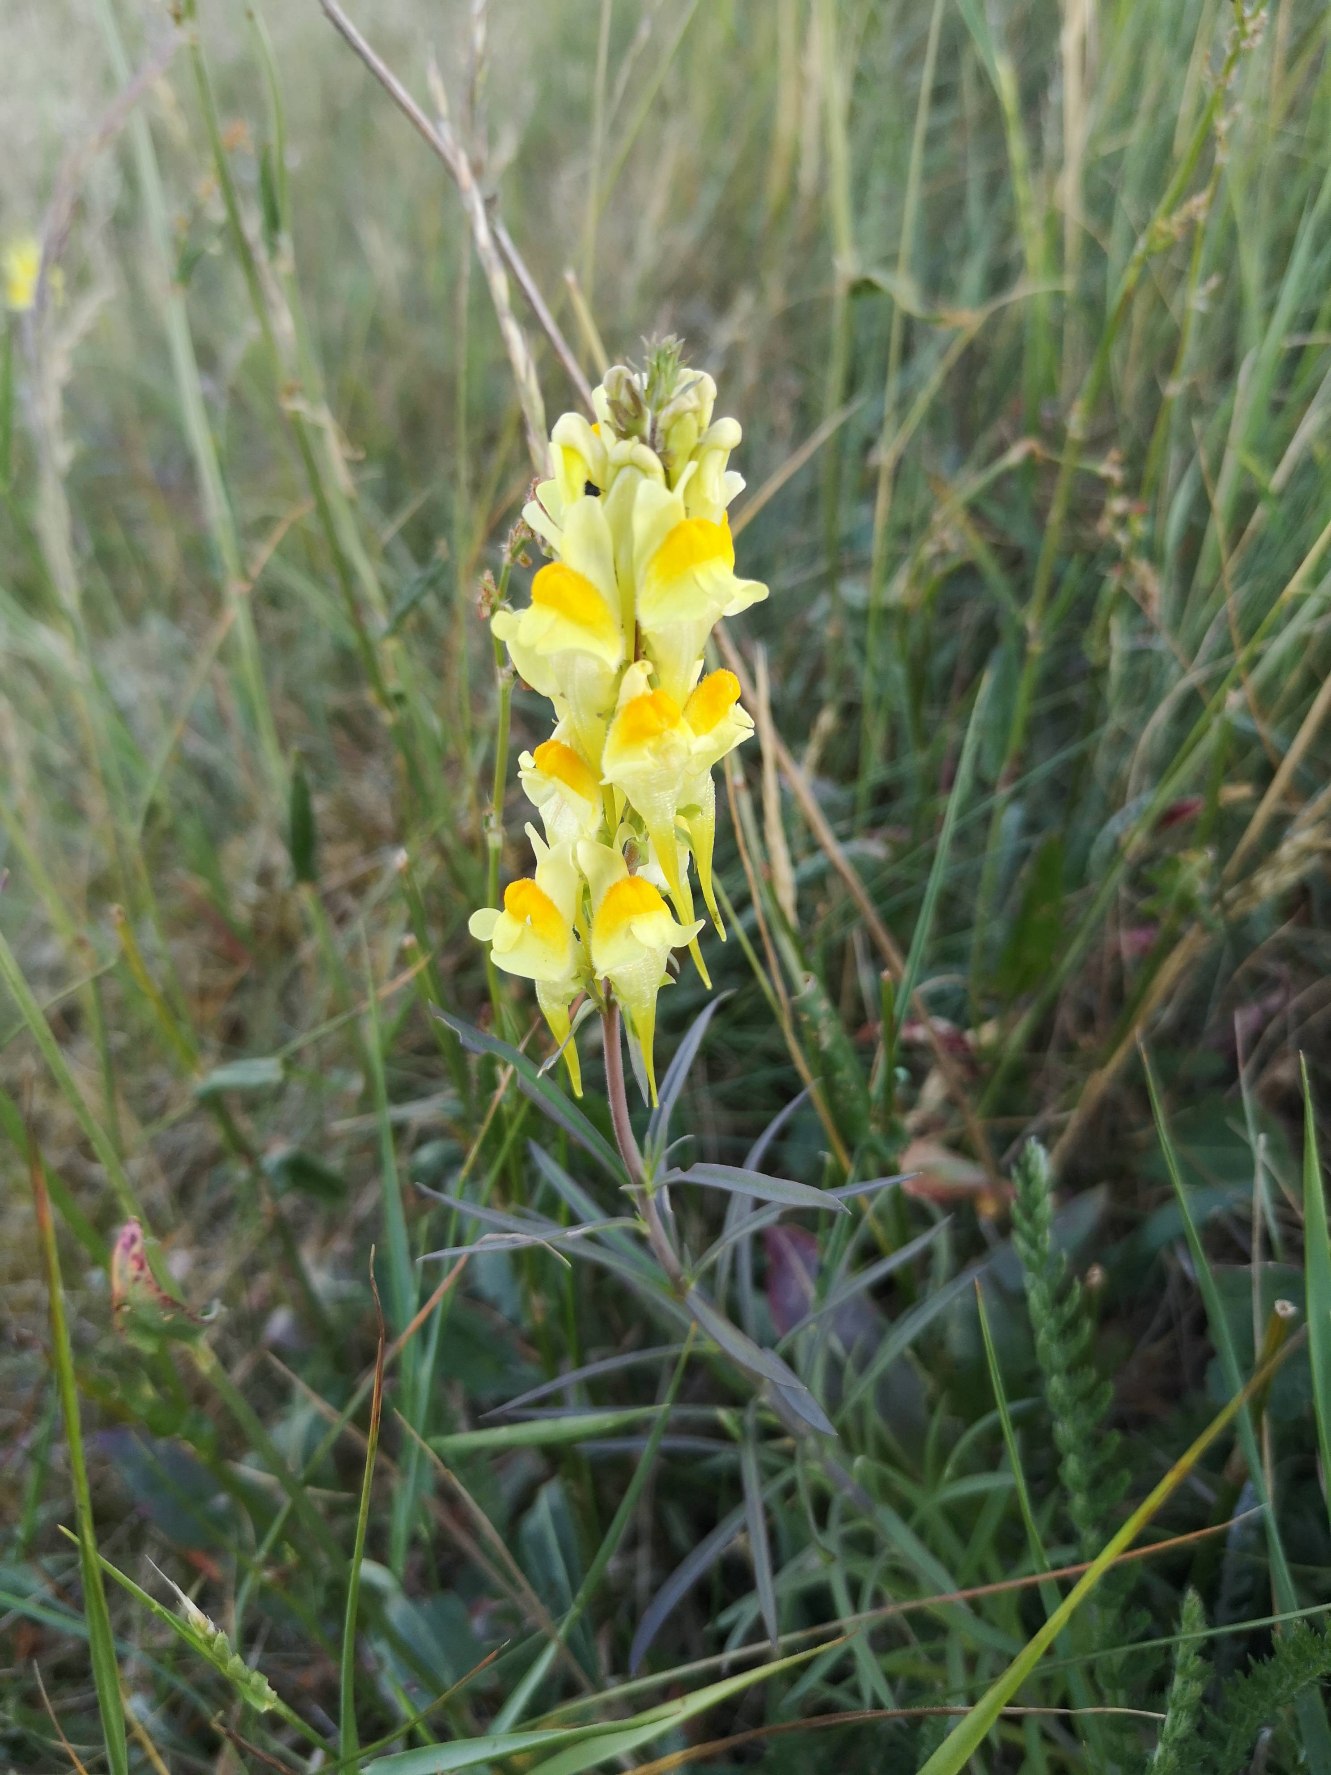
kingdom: Plantae
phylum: Tracheophyta
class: Magnoliopsida
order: Lamiales
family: Plantaginaceae
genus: Linaria
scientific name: Linaria vulgaris
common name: Almindelig torskemund
